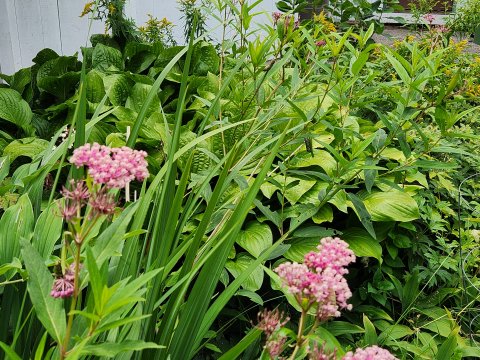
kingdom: Animalia
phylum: Arthropoda
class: Insecta
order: Lepidoptera
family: Nymphalidae
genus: Danaus
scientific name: Danaus plexippus
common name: Monarch
